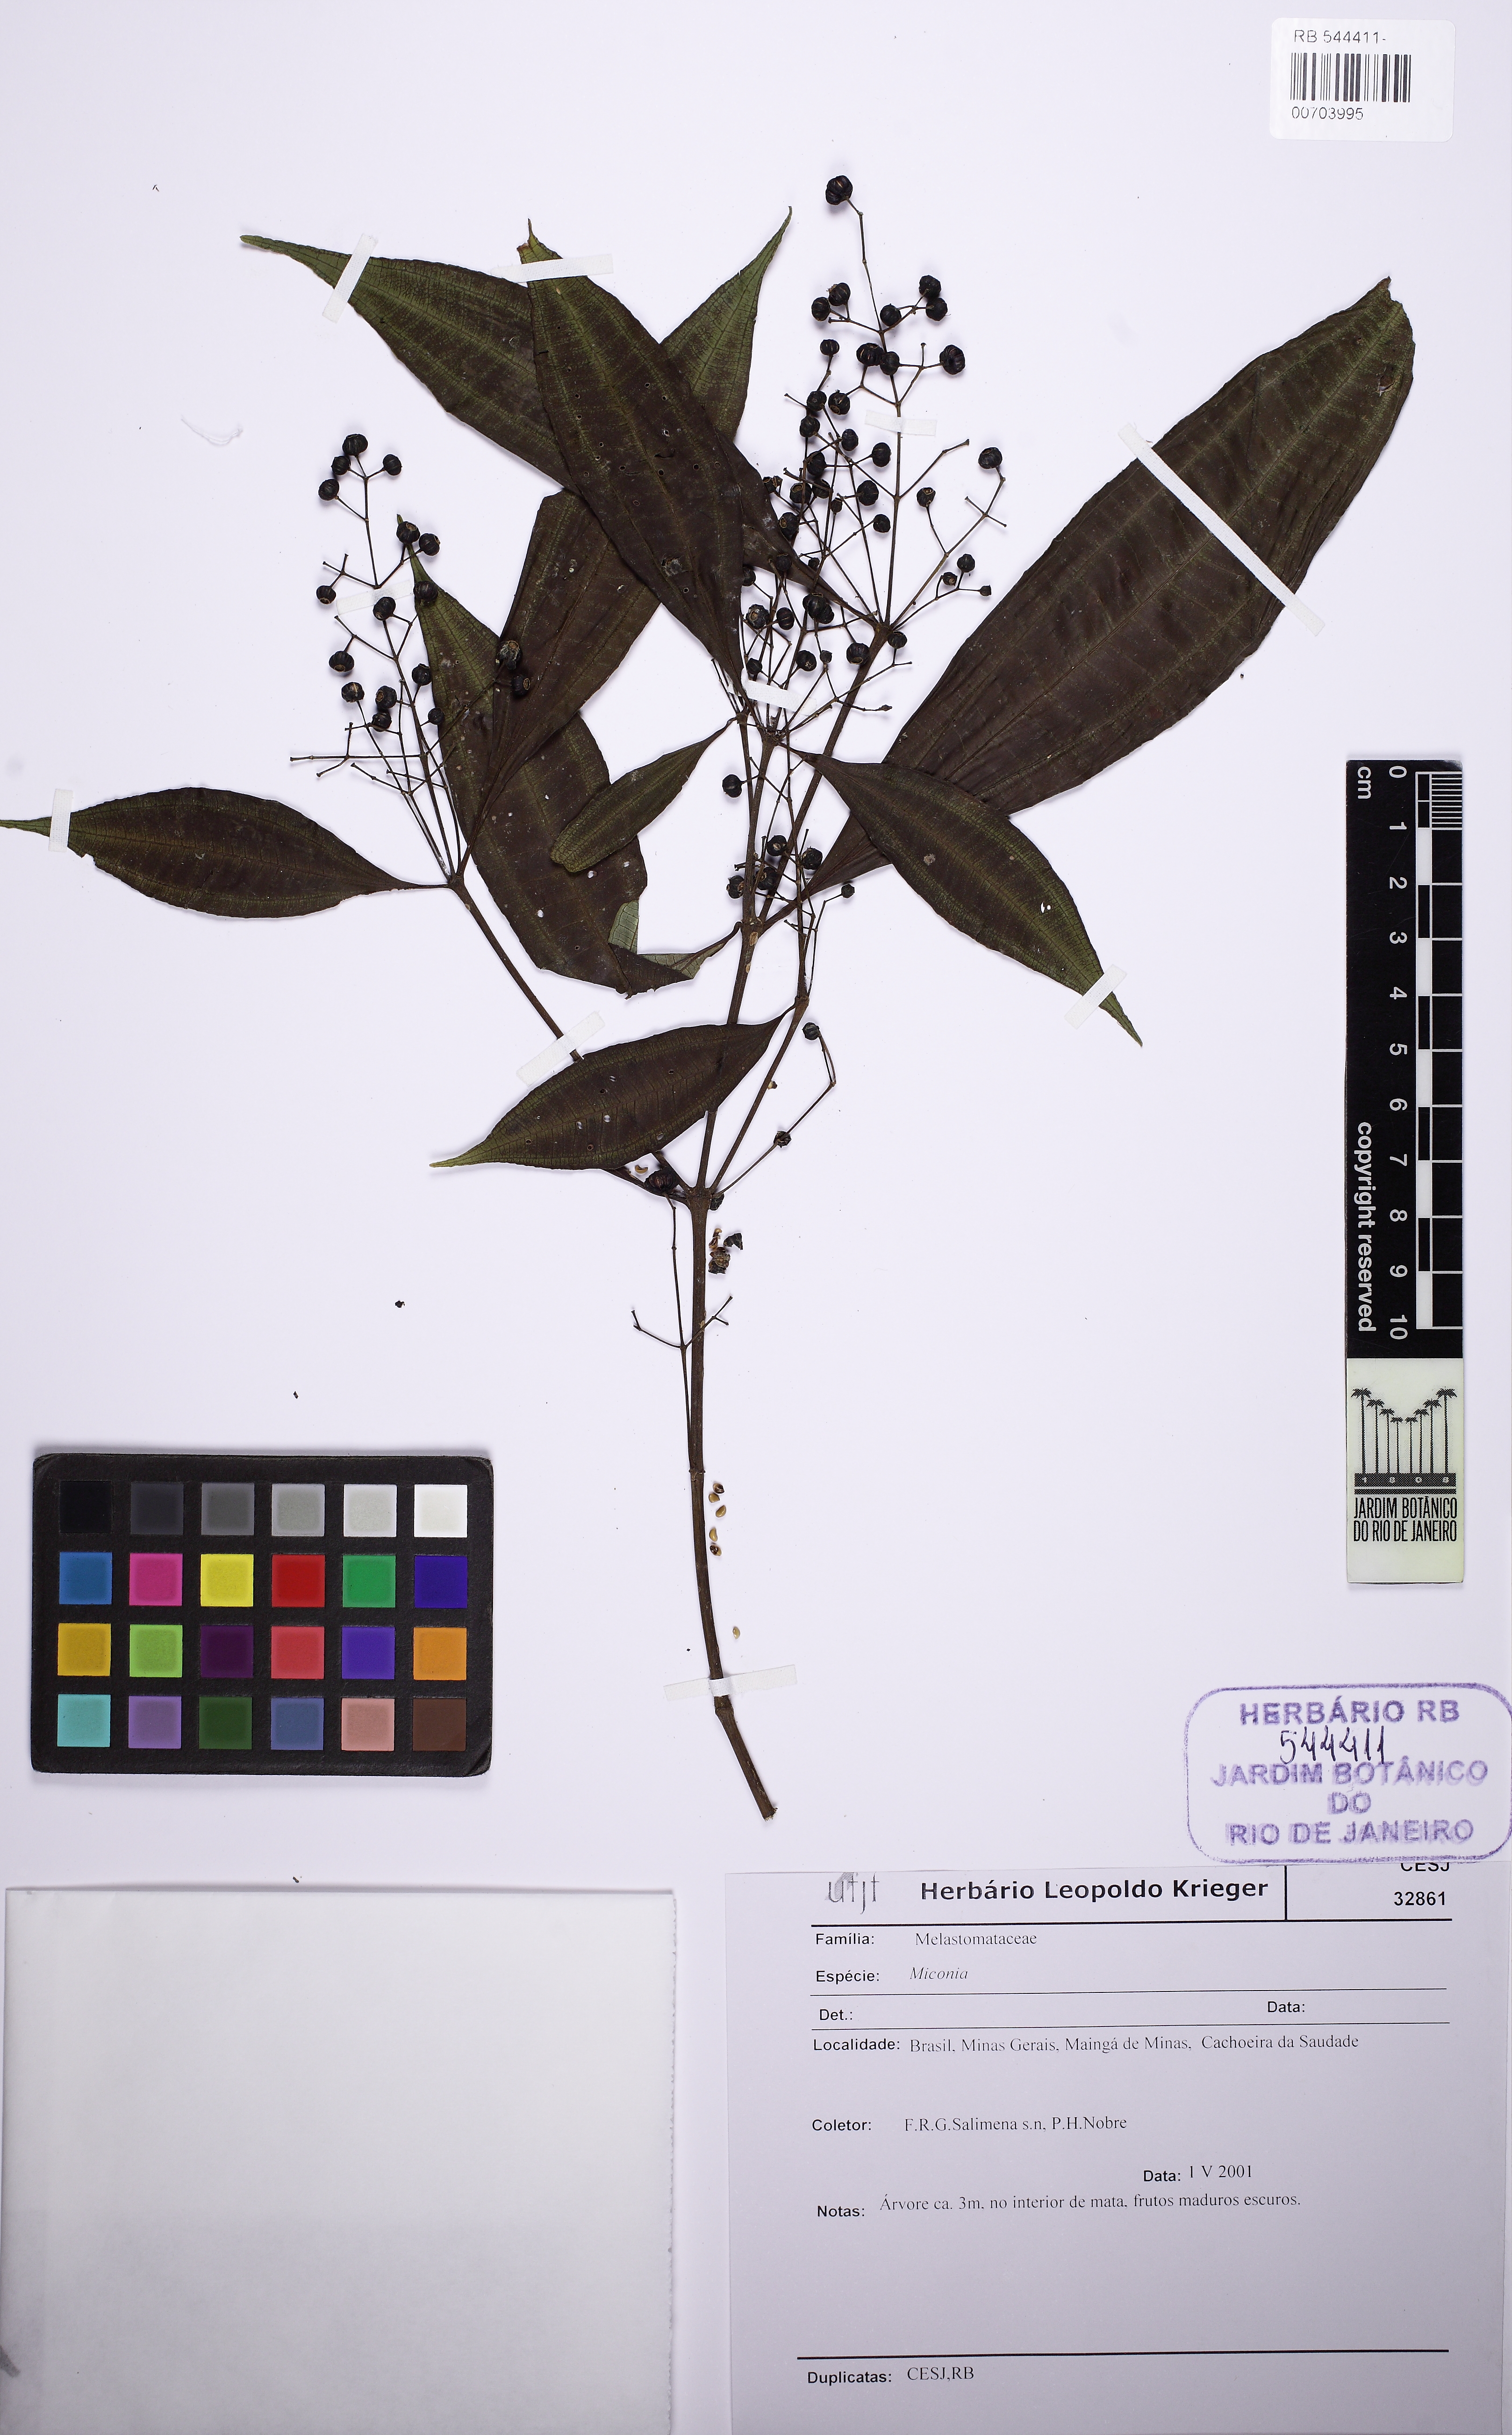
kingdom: Plantae
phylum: Tracheophyta
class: Magnoliopsida
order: Myrtales
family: Melastomataceae
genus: Miconia
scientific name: Miconia tristis
